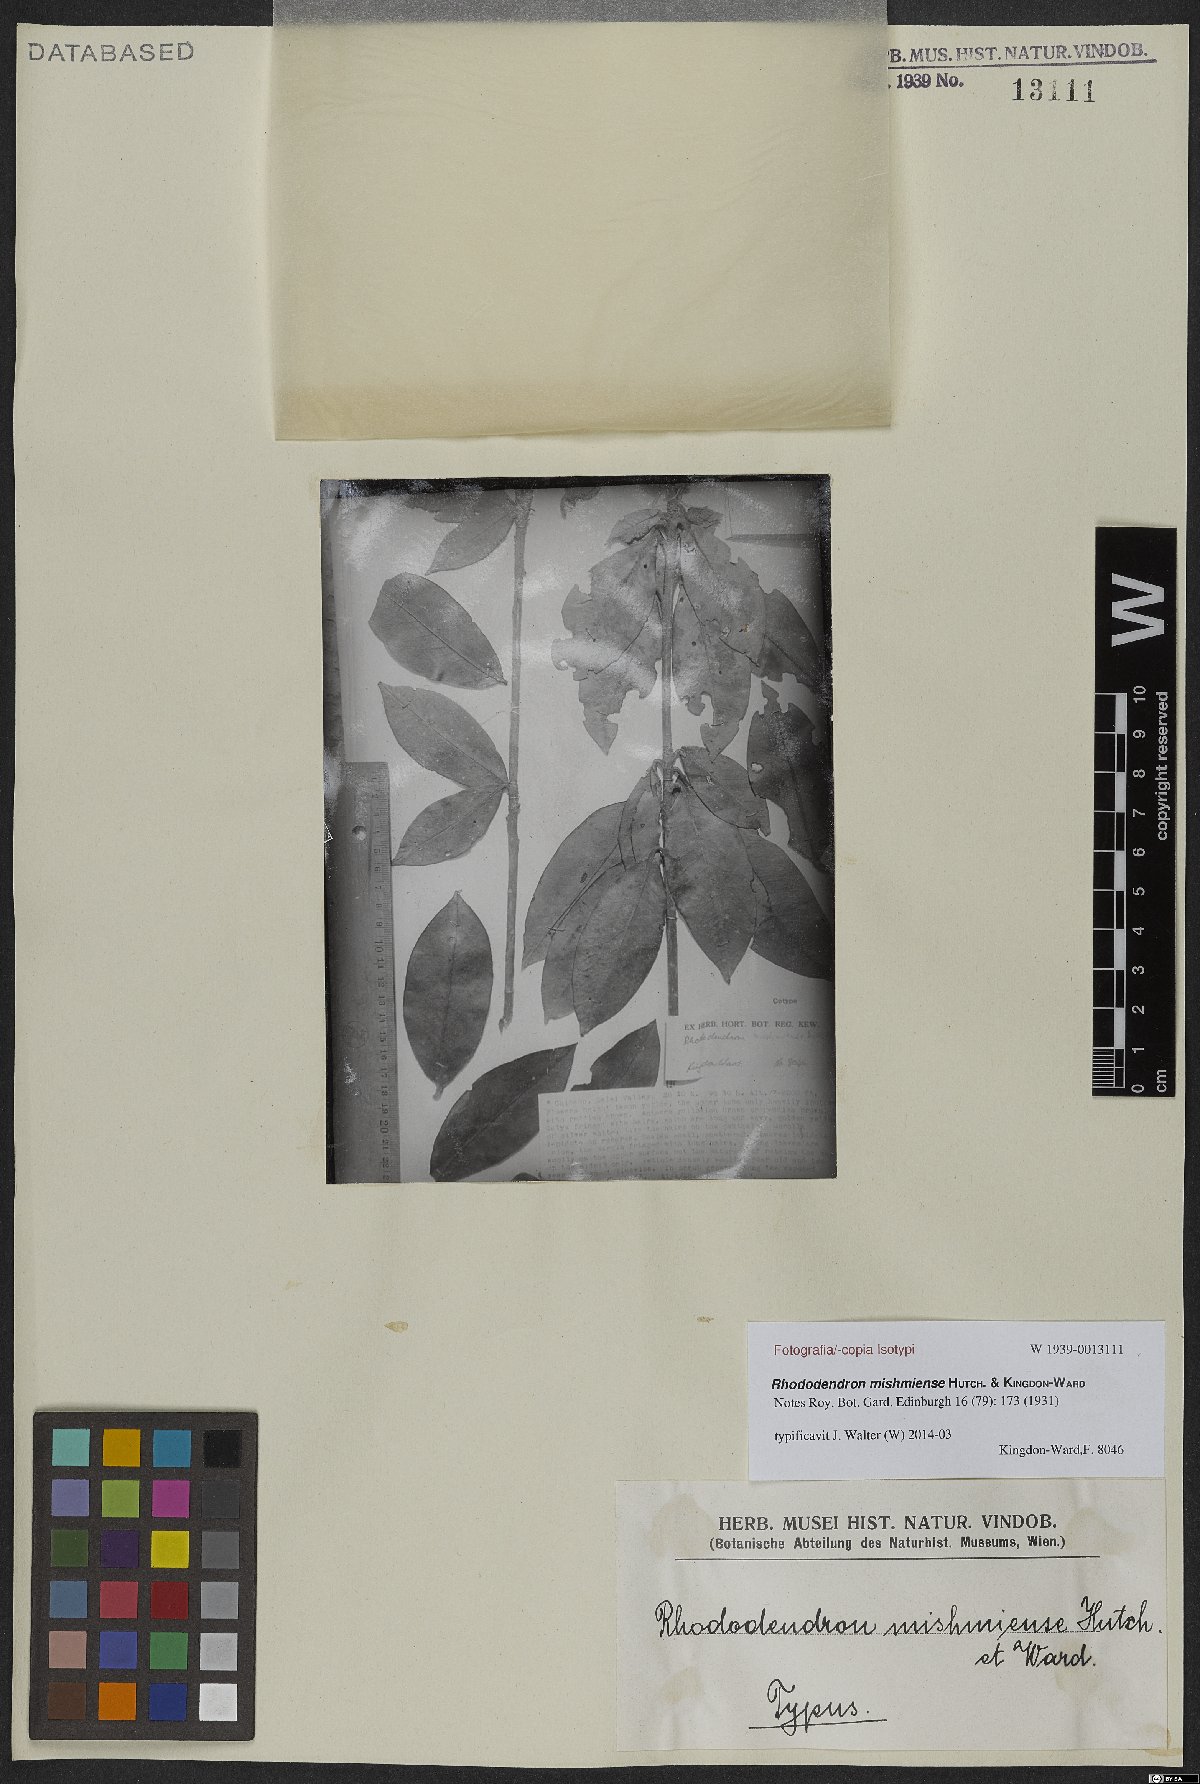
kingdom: Plantae
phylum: Tracheophyta
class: Magnoliopsida
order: Ericales
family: Ericaceae
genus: Rhododendron
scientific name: Rhododendron boothii
